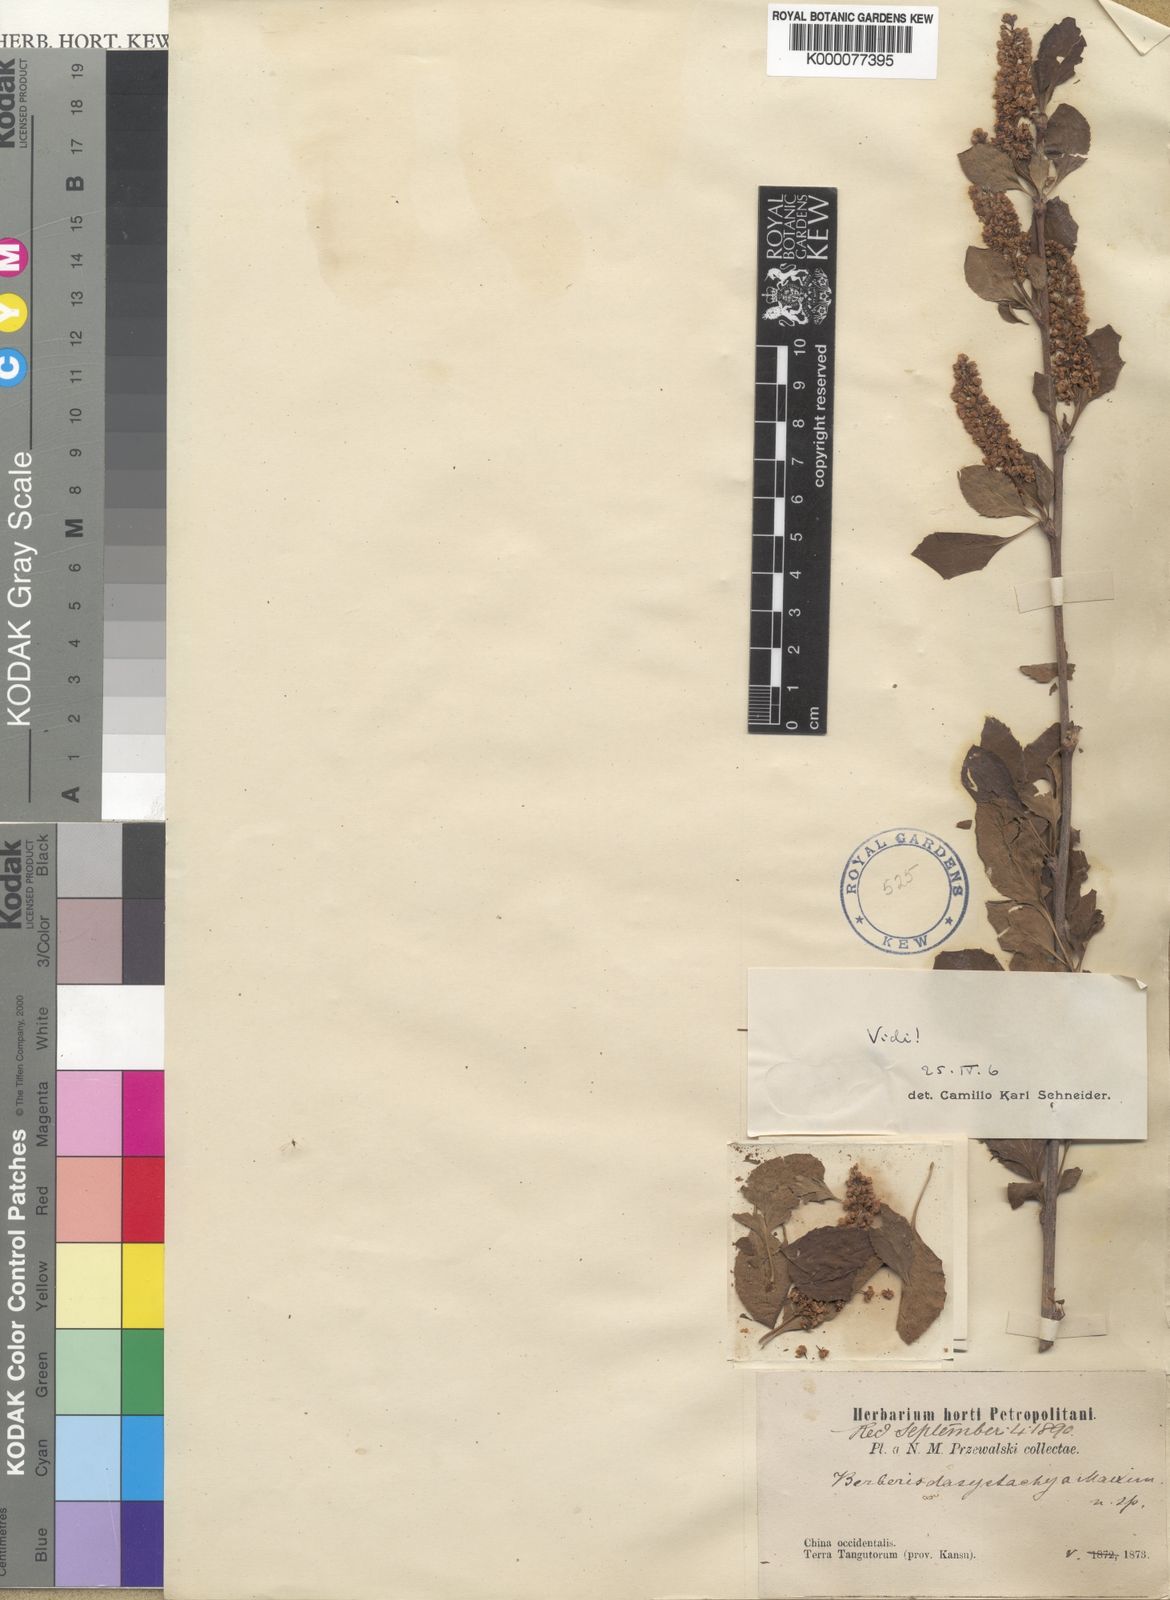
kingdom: Plantae
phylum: Tracheophyta
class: Magnoliopsida
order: Ranunculales
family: Berberidaceae
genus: Berberis
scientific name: Berberis dasystachya
